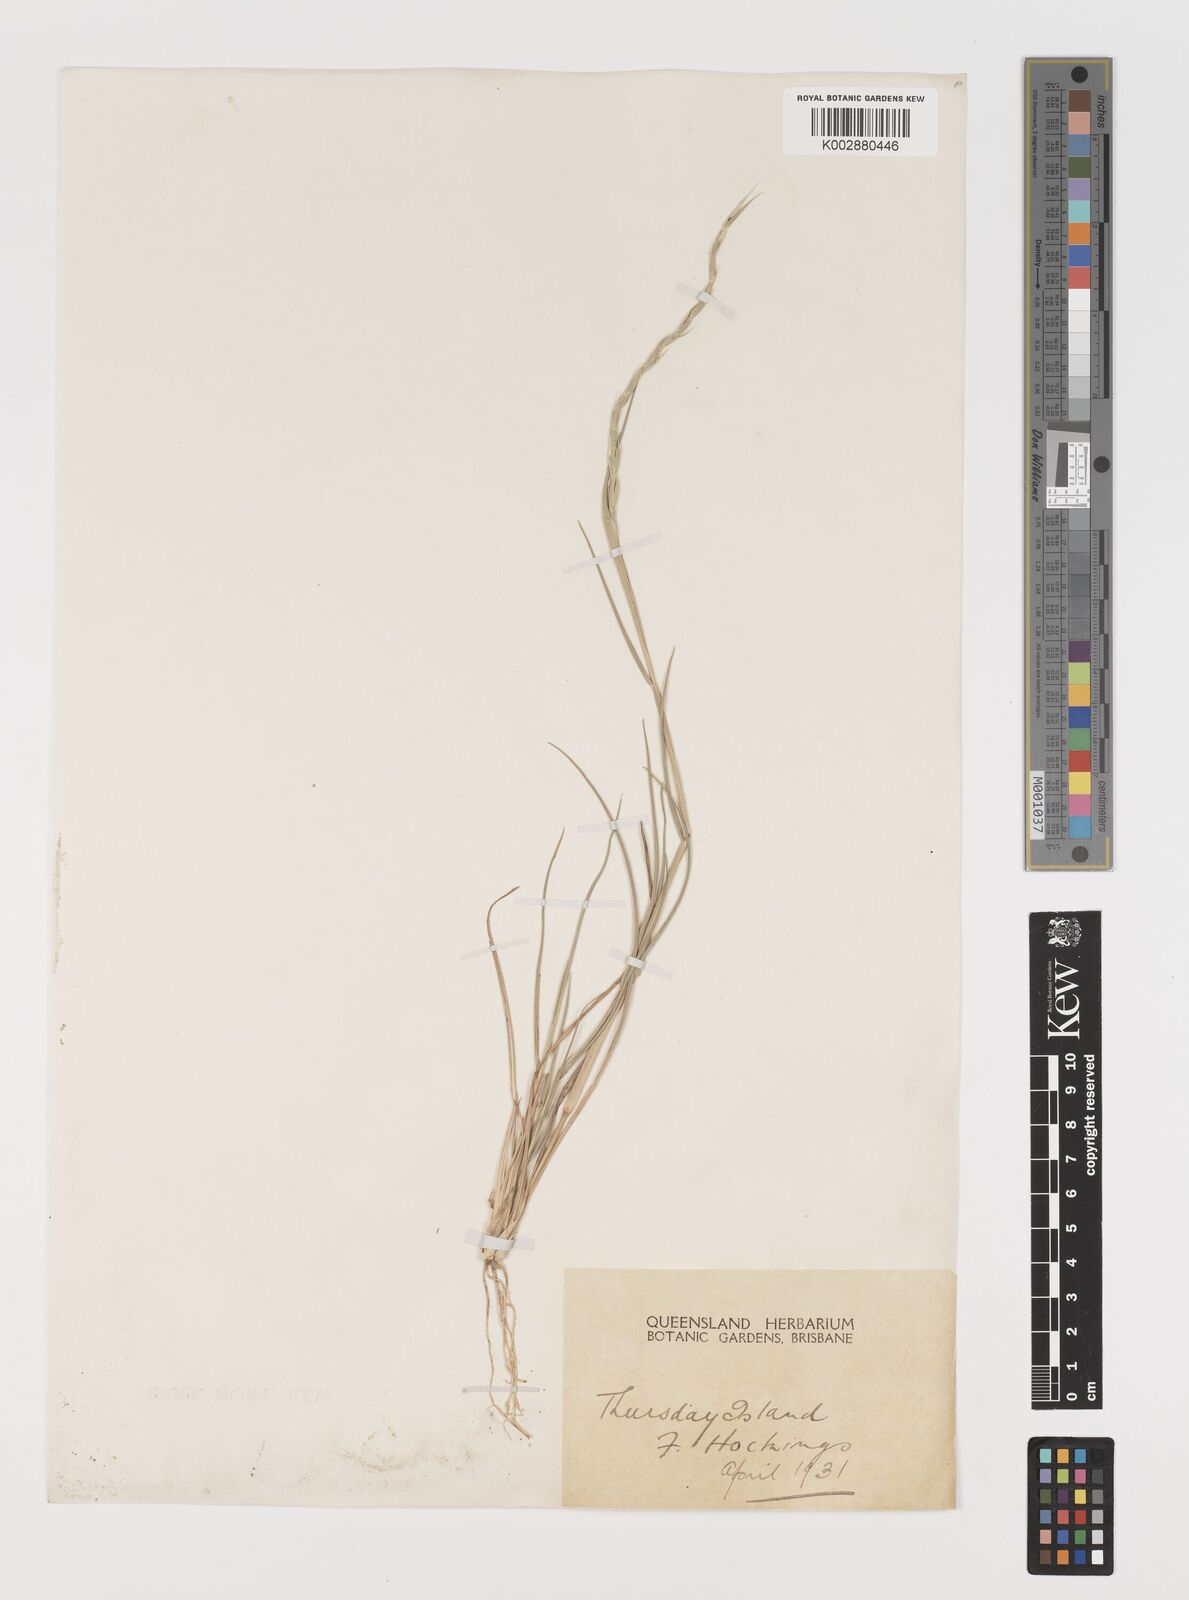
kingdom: Plantae
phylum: Tracheophyta
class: Liliopsida
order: Poales
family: Poaceae
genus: Lepturus
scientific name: Lepturus repens
